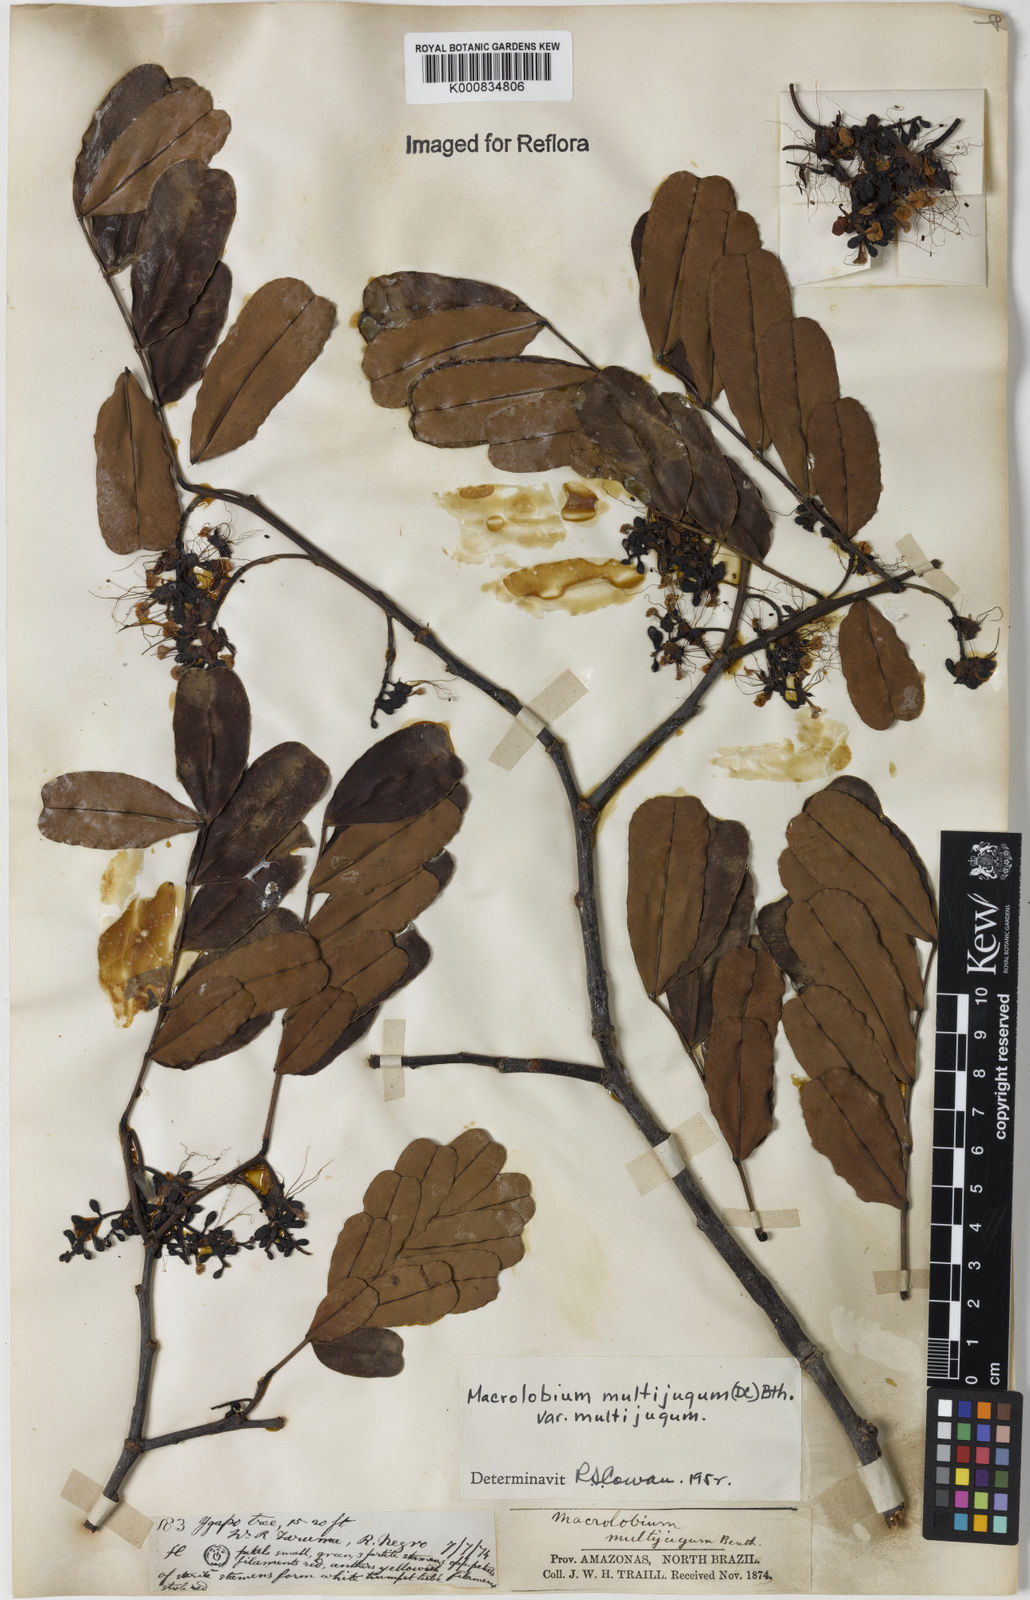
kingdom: Plantae
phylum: Tracheophyta
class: Magnoliopsida
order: Fabales
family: Fabaceae
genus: Macrolobium
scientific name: Macrolobium multijugum
